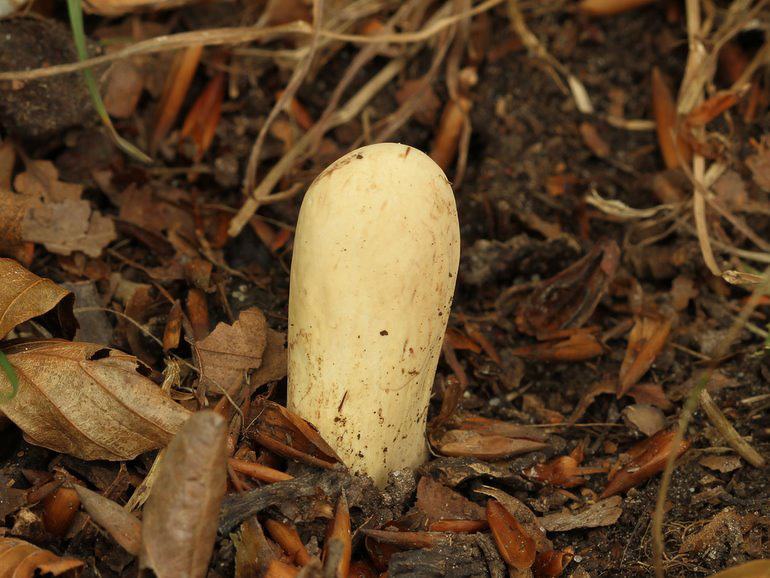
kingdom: Fungi
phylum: Basidiomycota
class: Agaricomycetes
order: Gomphales
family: Clavariadelphaceae
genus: Clavariadelphus
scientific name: Clavariadelphus pistillaris
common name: herkules-kæmpekølle
